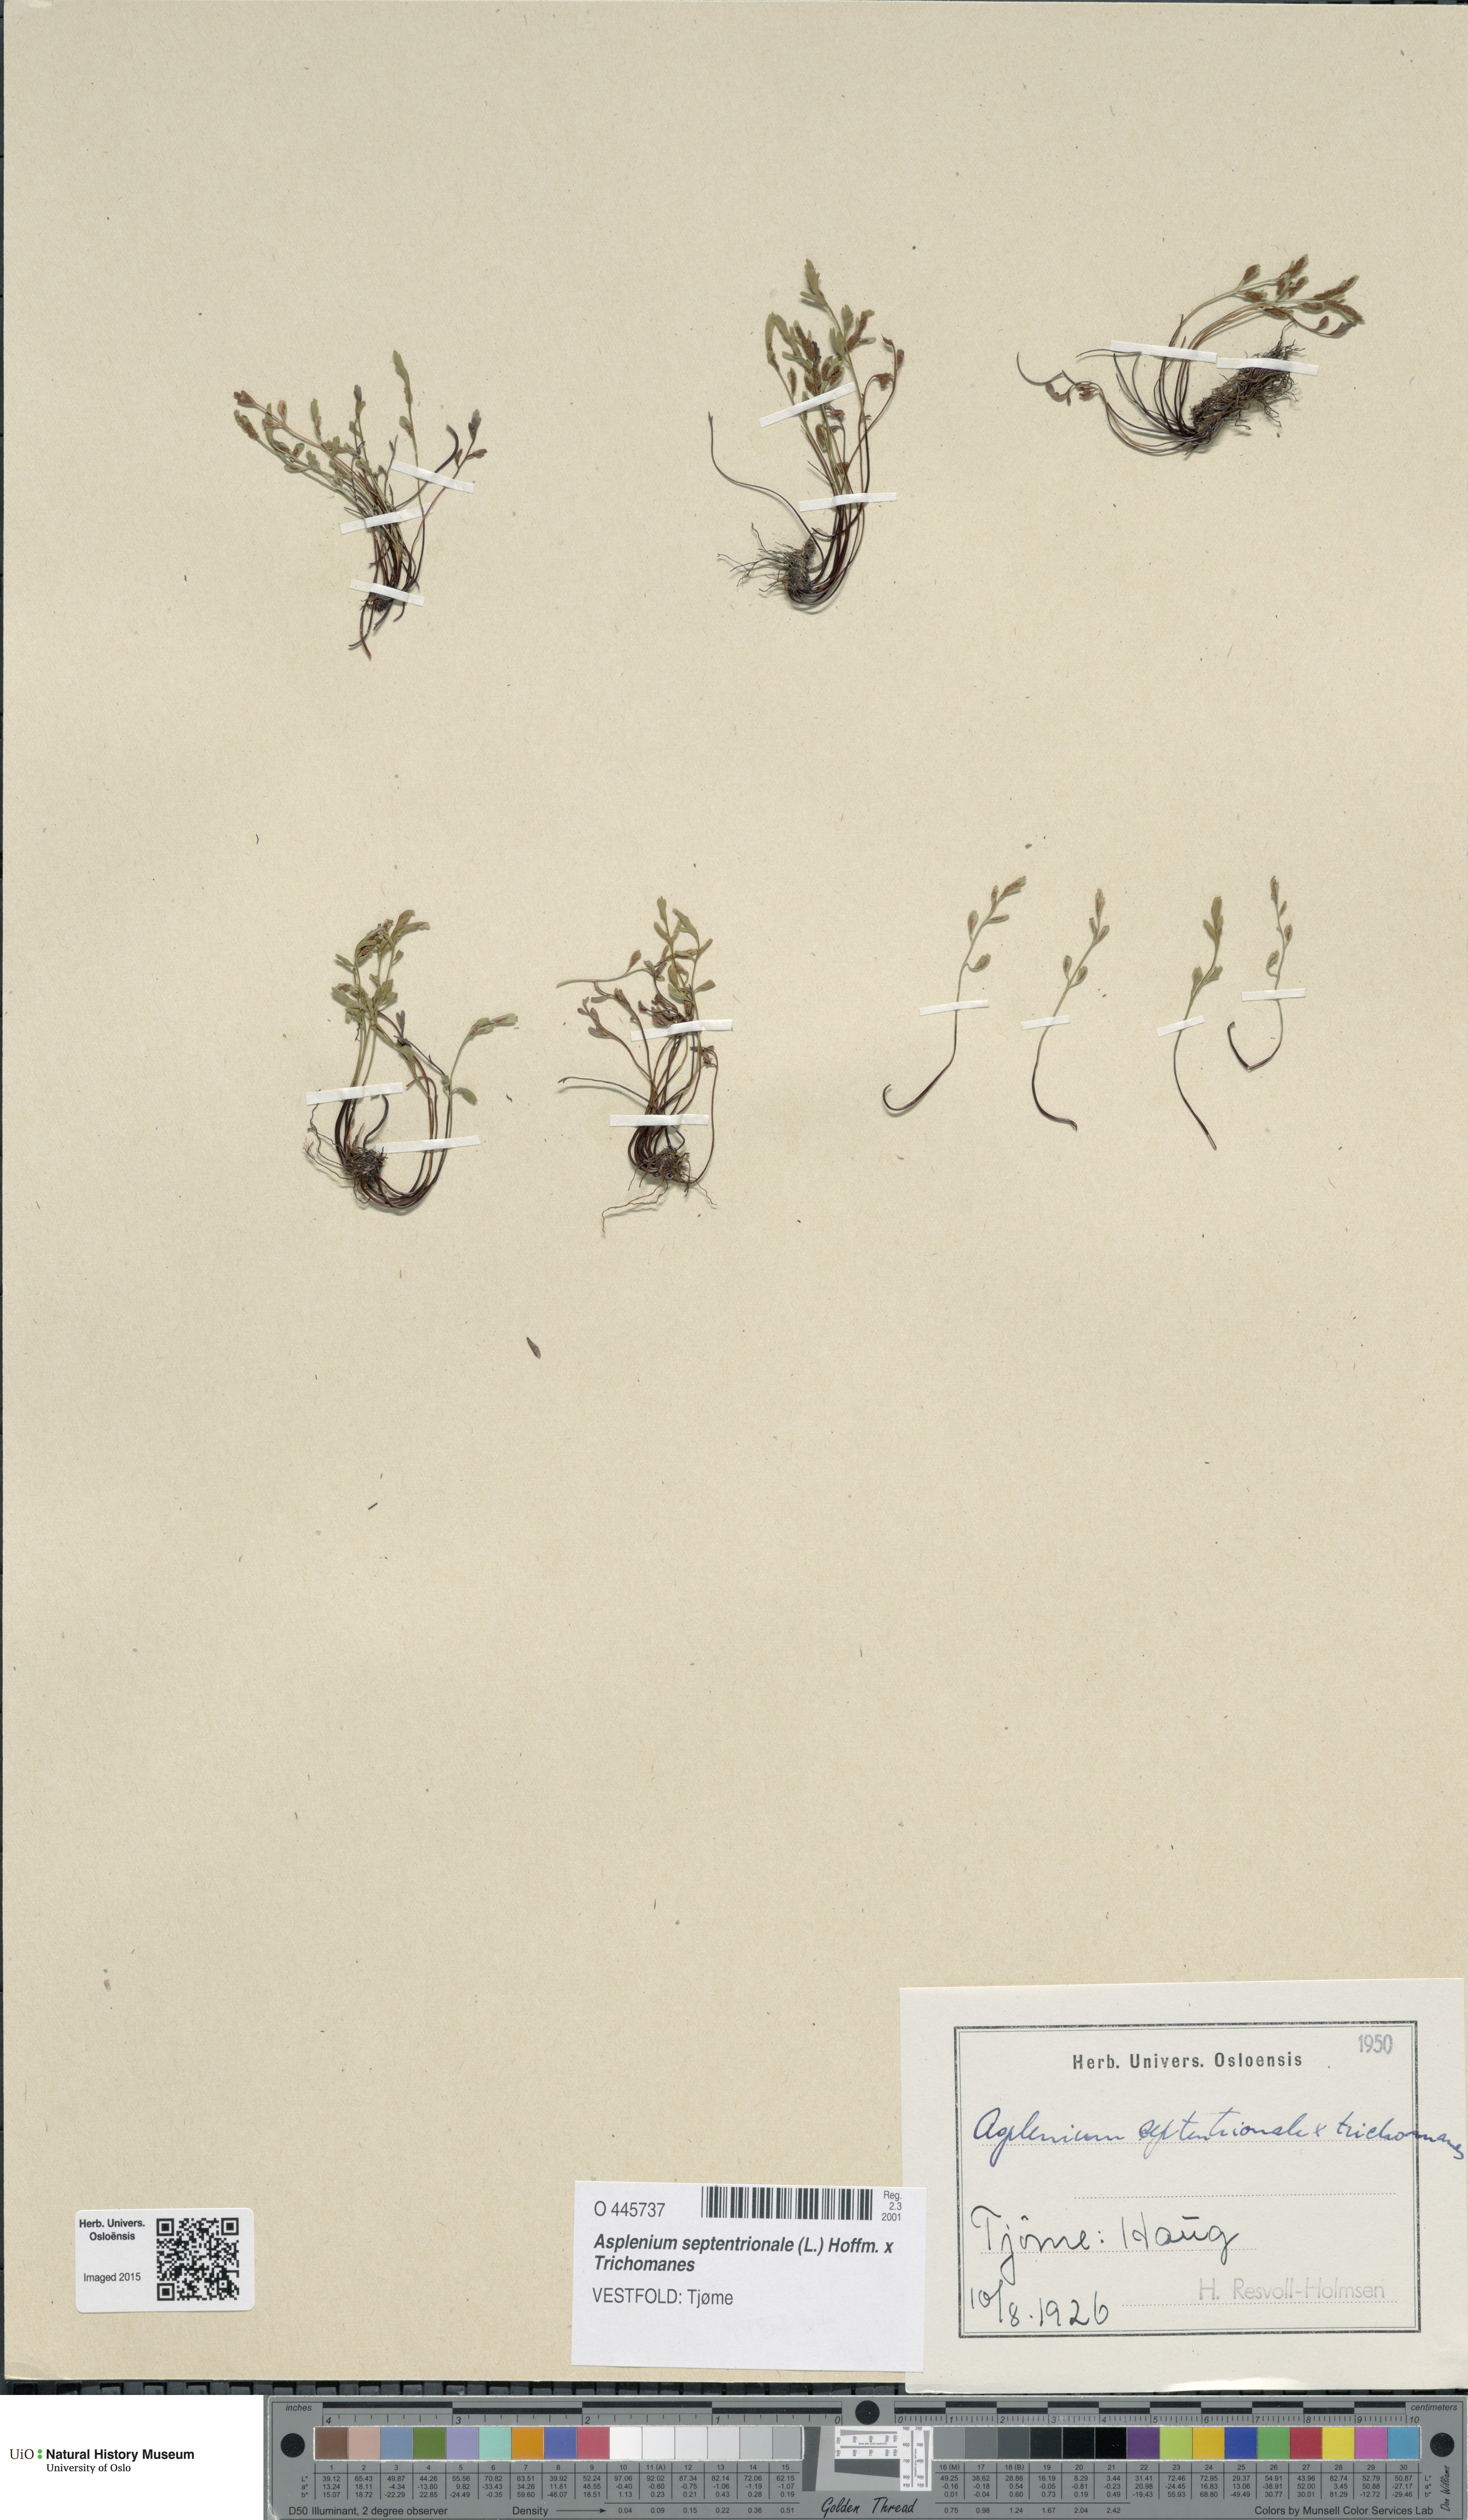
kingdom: Plantae
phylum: Tracheophyta
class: Polypodiopsida
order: Polypodiales
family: Aspleniaceae
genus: Asplenium
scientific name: Asplenium
